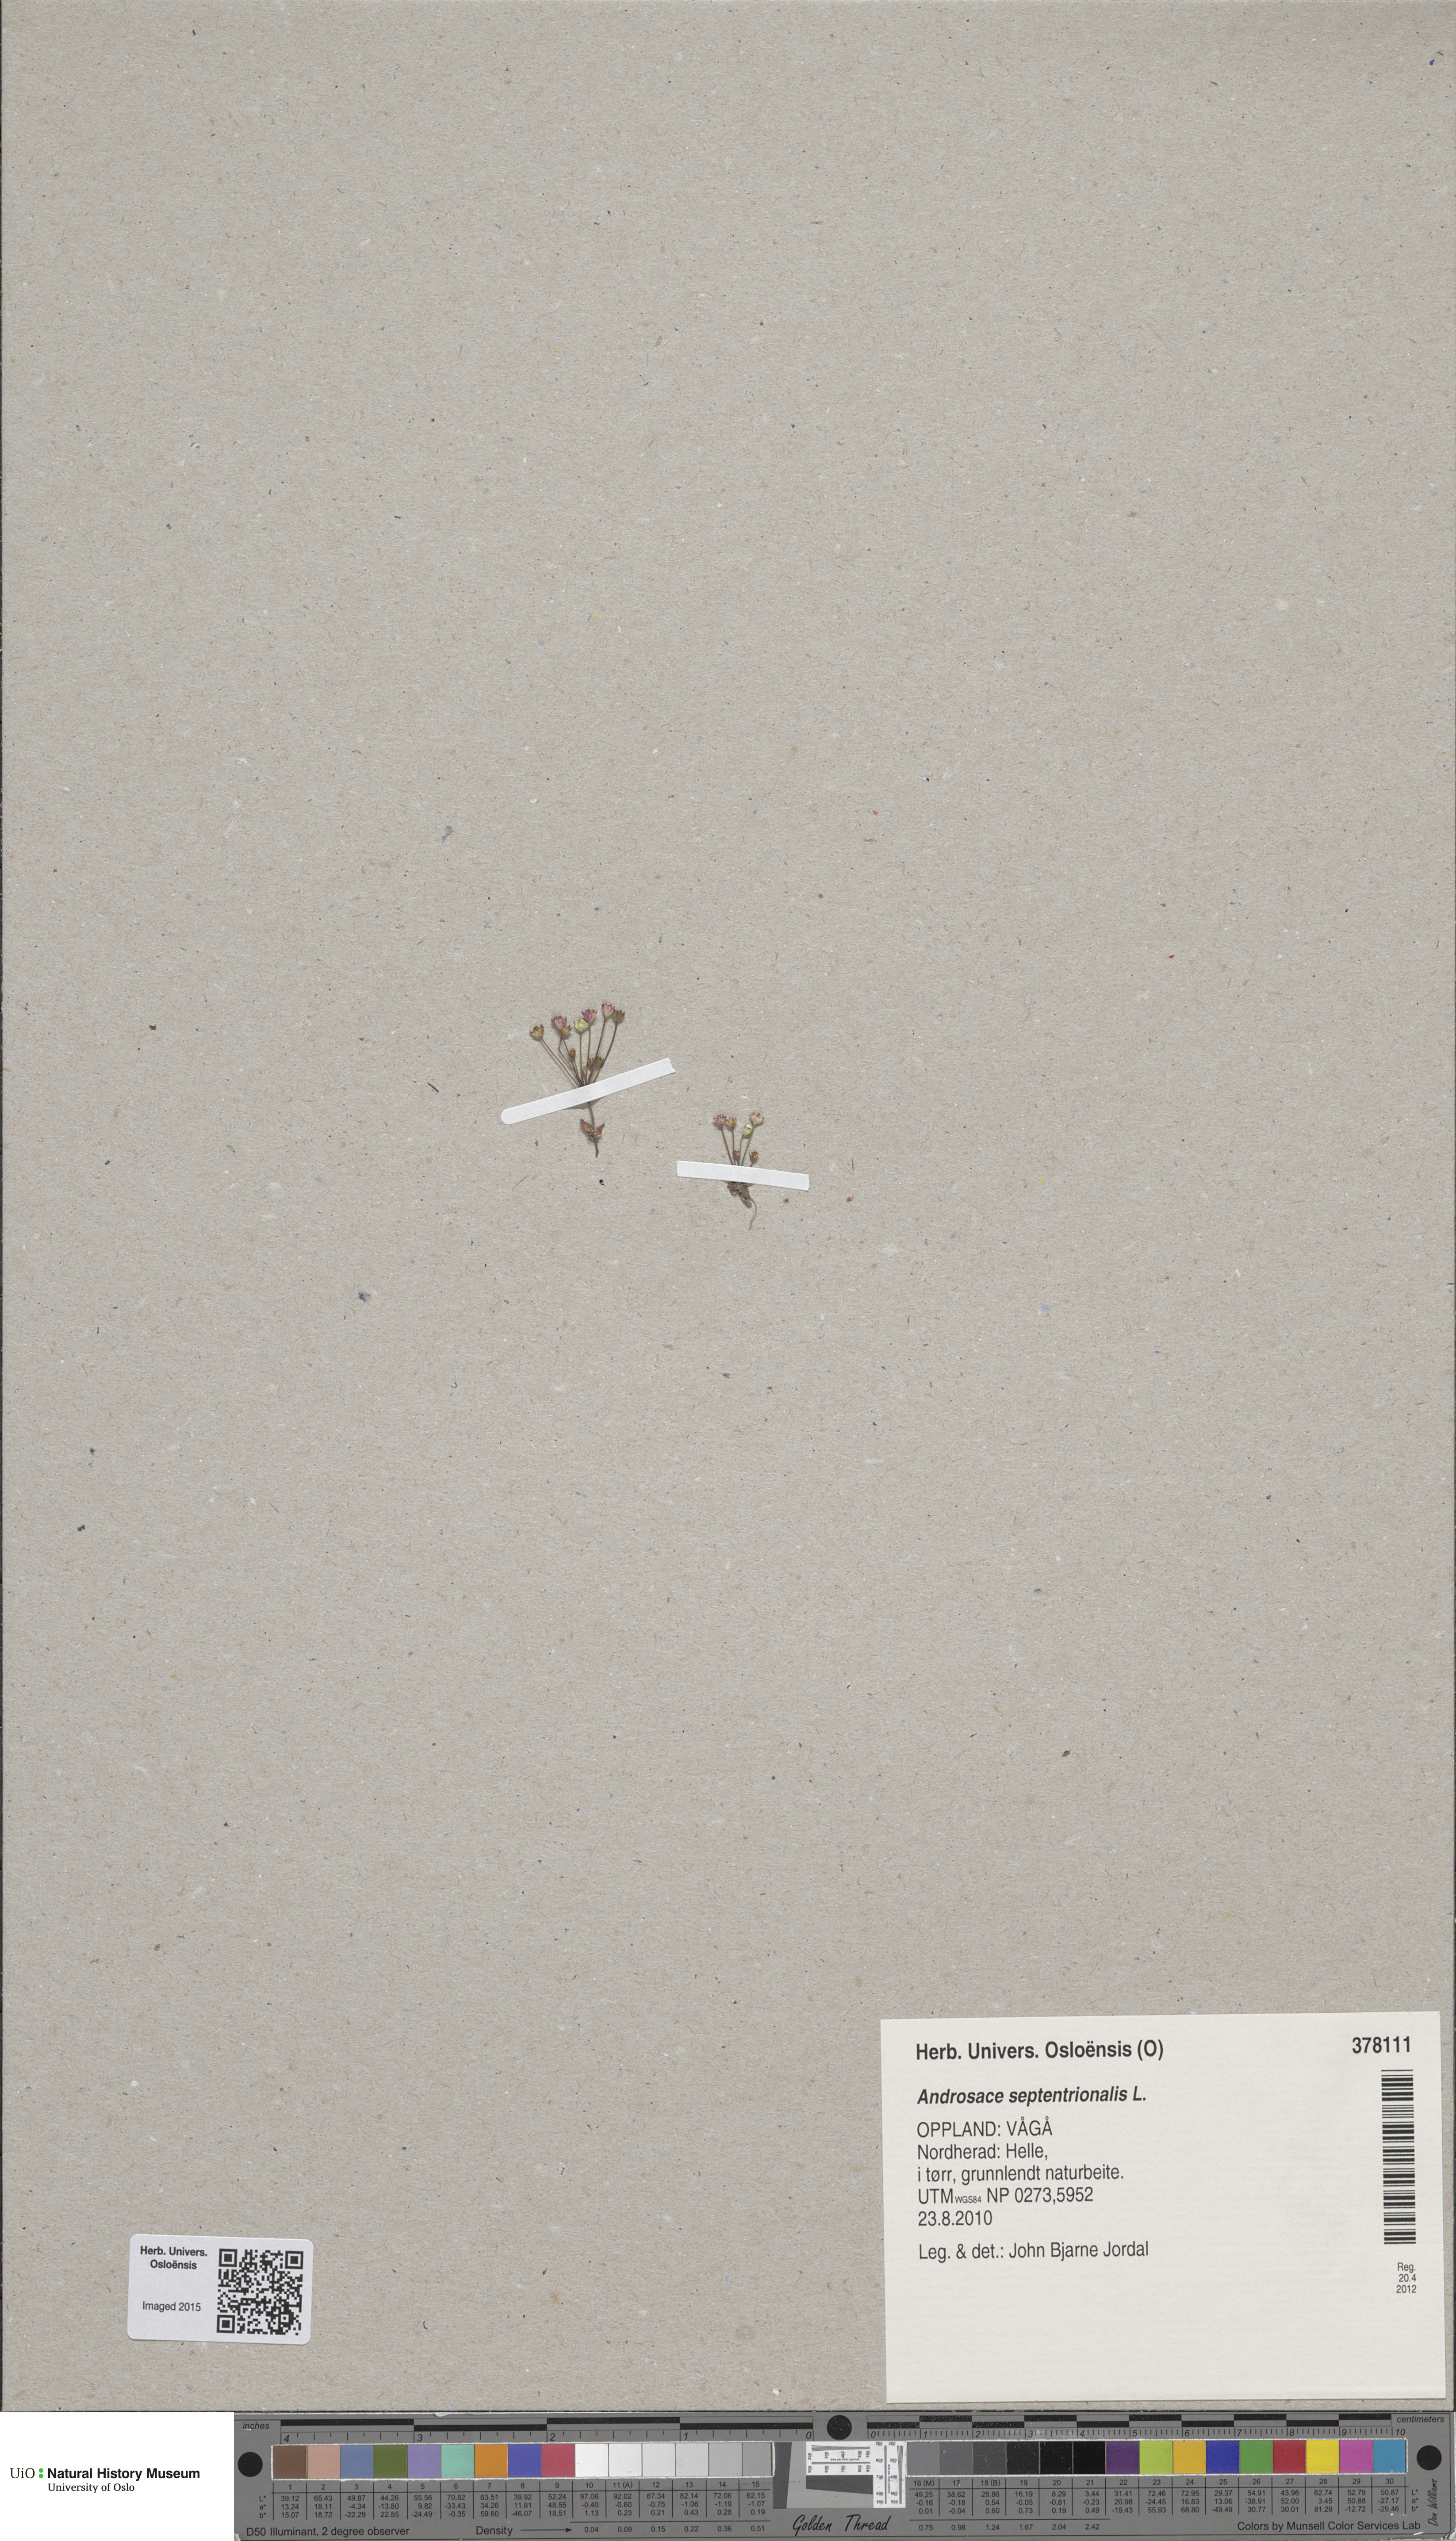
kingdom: Plantae
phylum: Tracheophyta
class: Magnoliopsida
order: Ericales
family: Primulaceae
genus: Androsace
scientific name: Androsace septentrionalis
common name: Hairy northern fairy-candelabra
